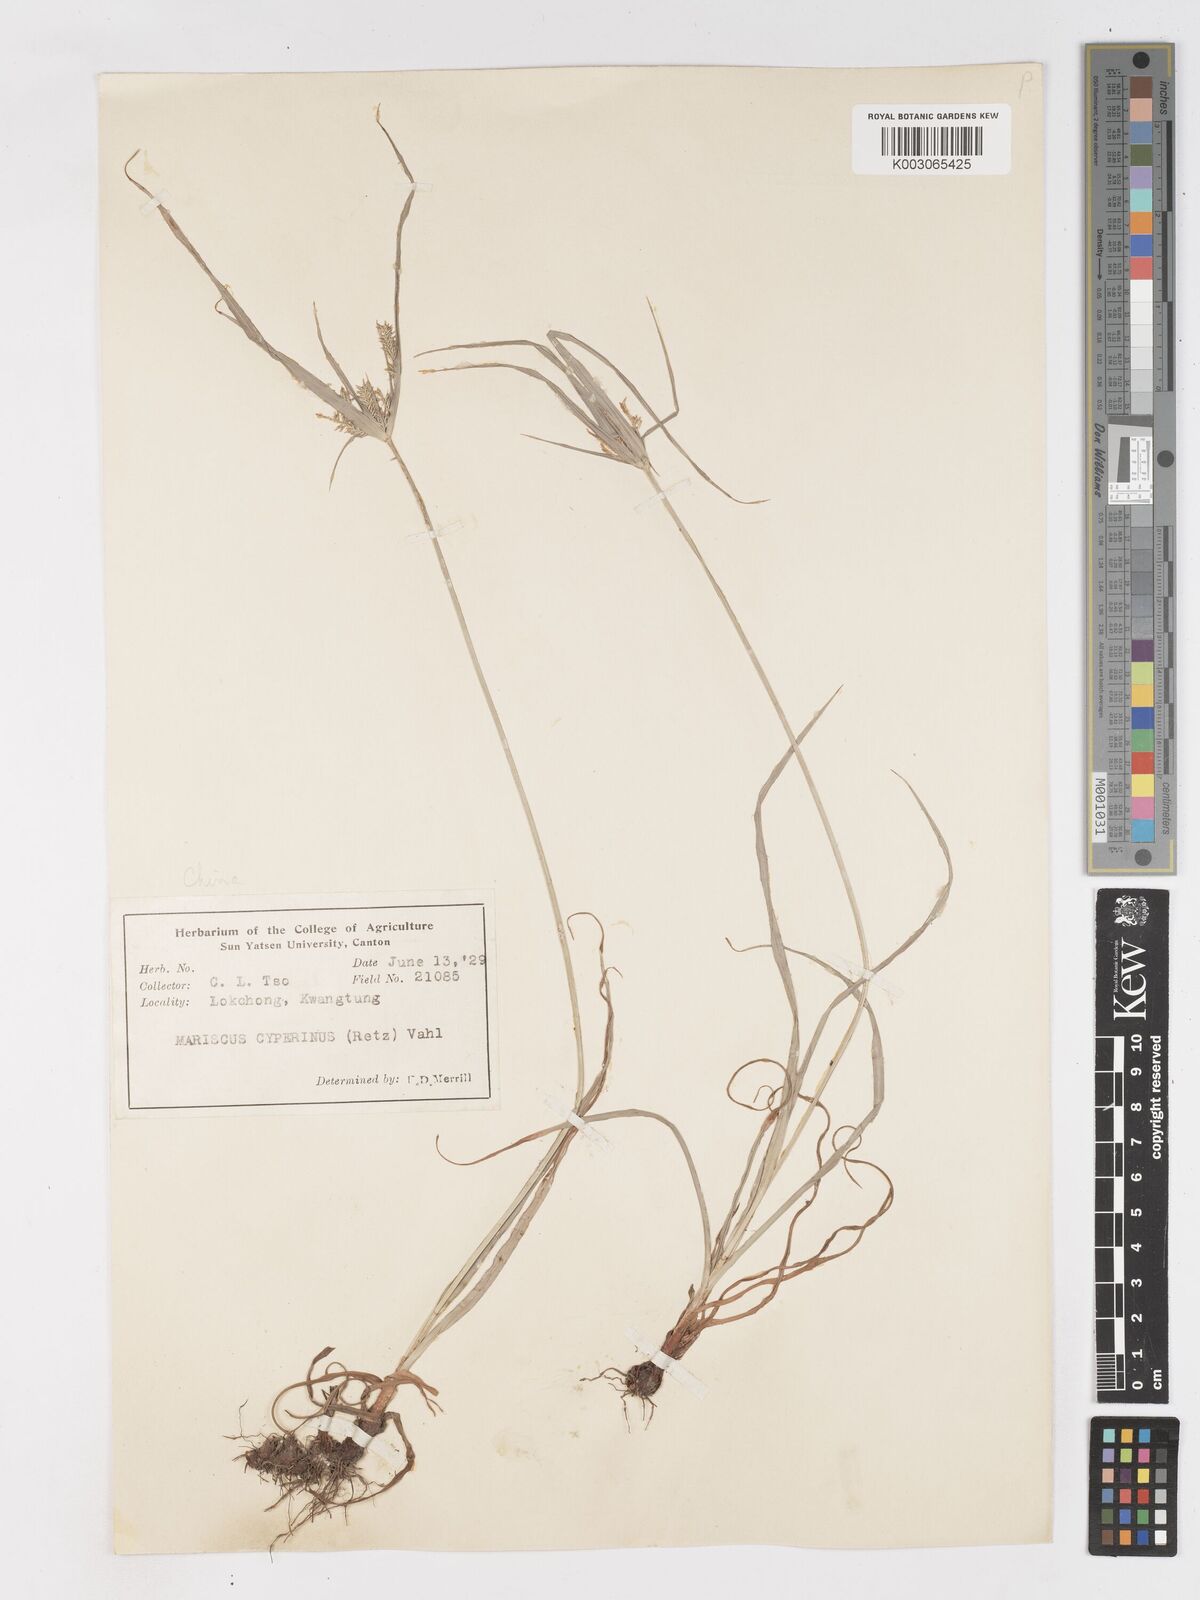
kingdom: Plantae
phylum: Tracheophyta
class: Liliopsida
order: Poales
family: Cyperaceae
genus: Cyperus
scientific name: Cyperus cyperinus
